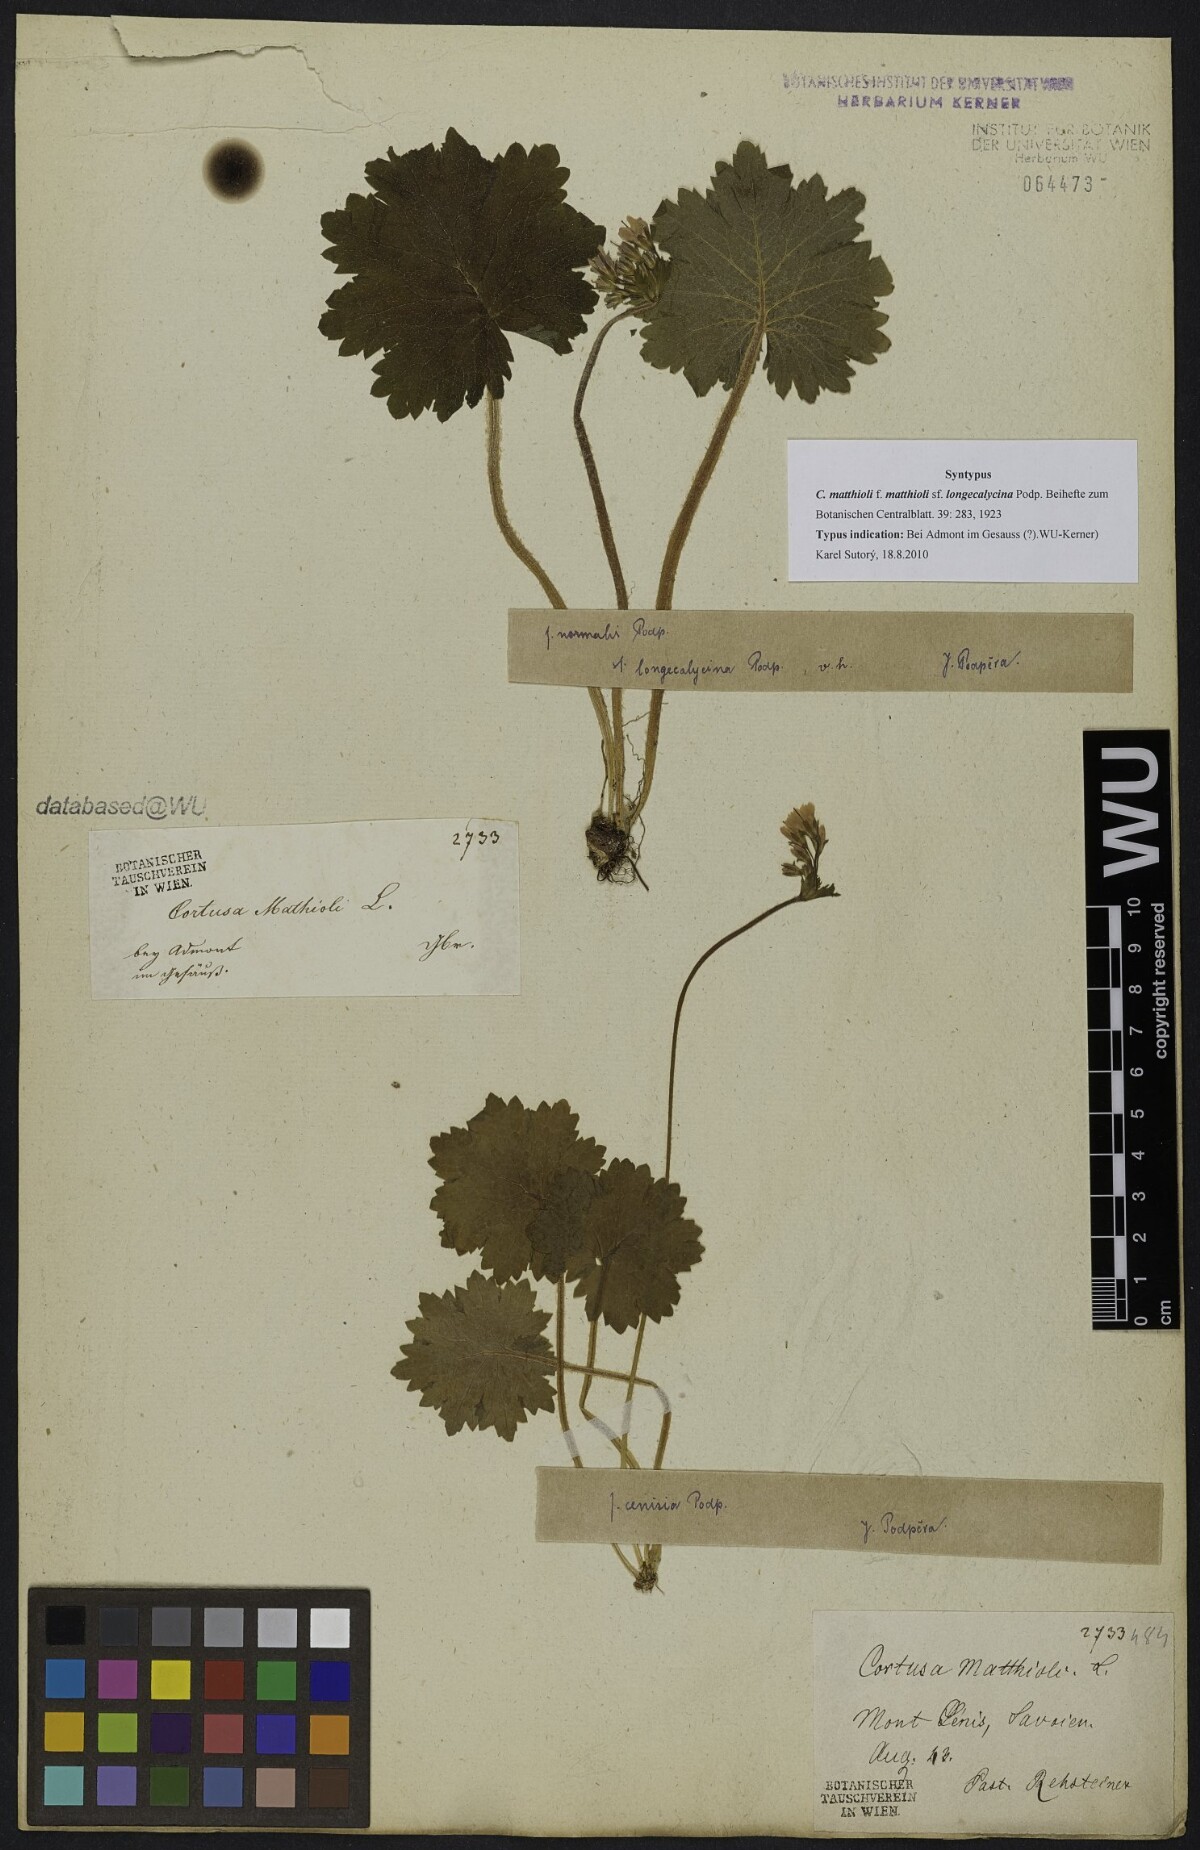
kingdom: Plantae
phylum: Tracheophyta
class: Magnoliopsida
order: Ericales
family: Primulaceae
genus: Primula
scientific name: Primula matthioli
